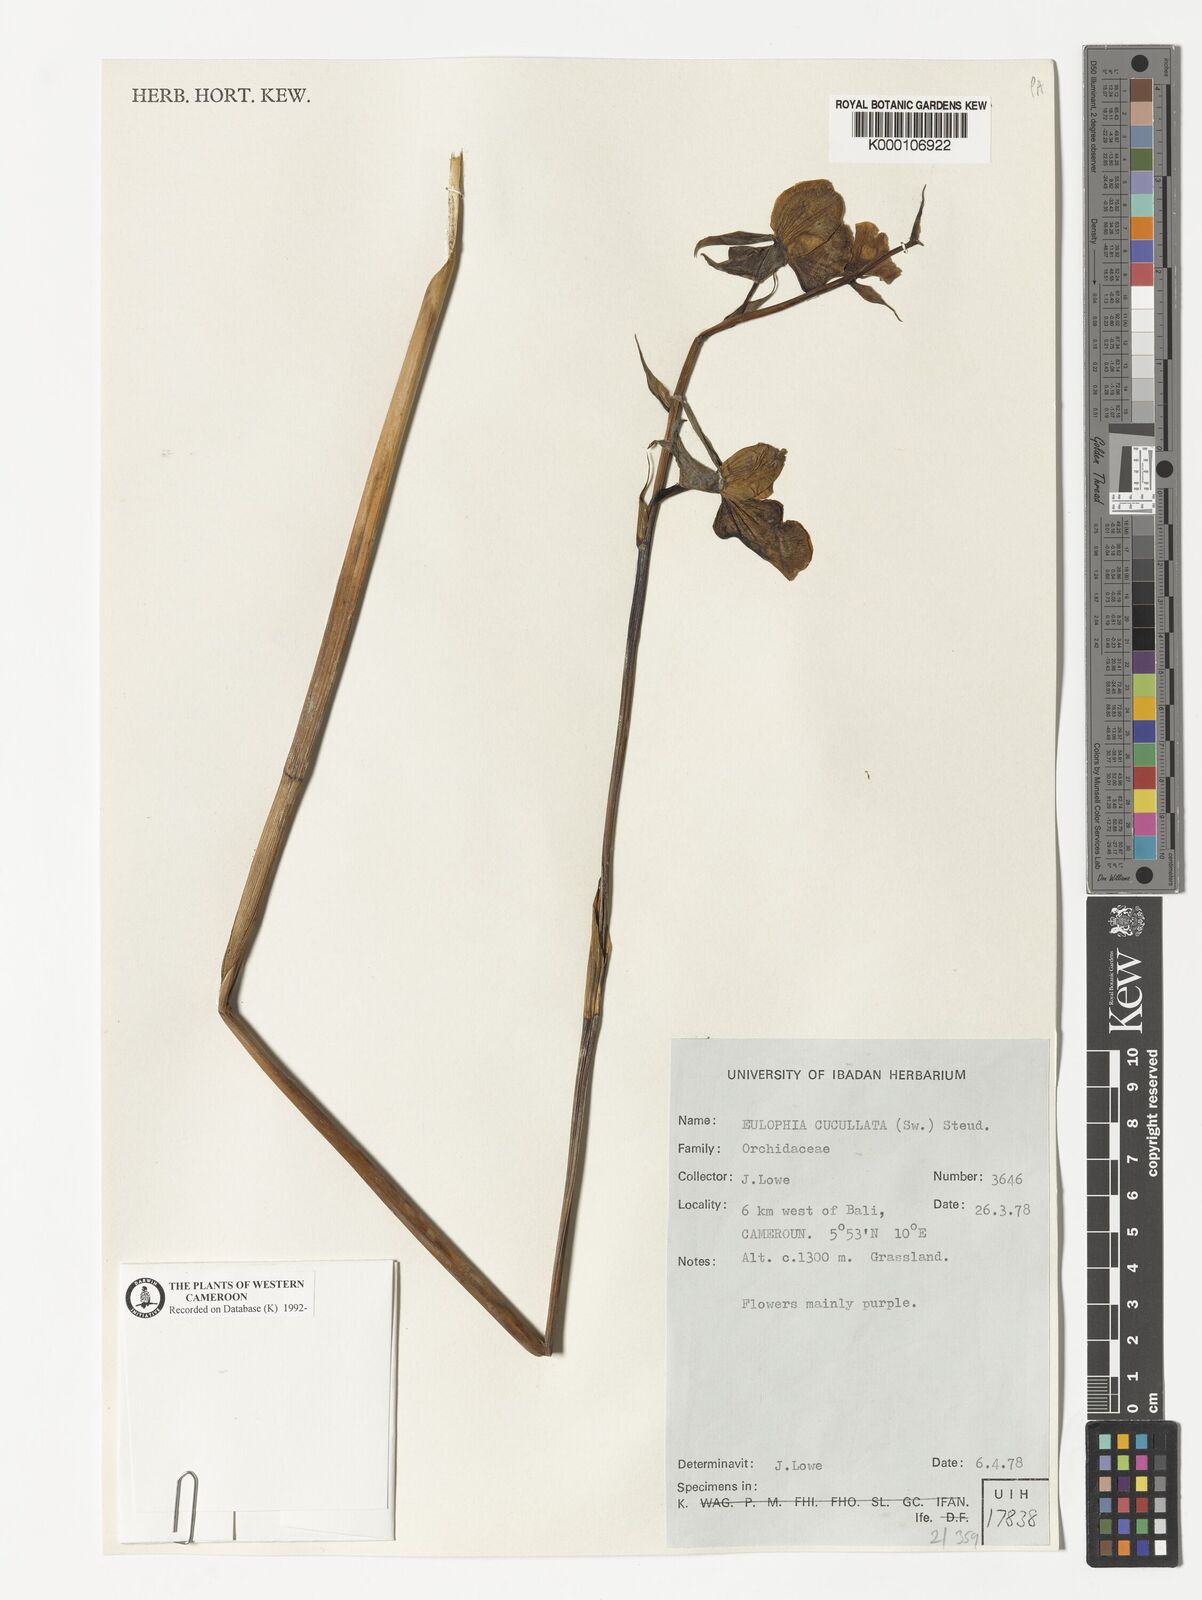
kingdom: Plantae
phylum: Tracheophyta
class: Liliopsida
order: Asparagales
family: Orchidaceae
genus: Eulophia
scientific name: Eulophia cucullata
